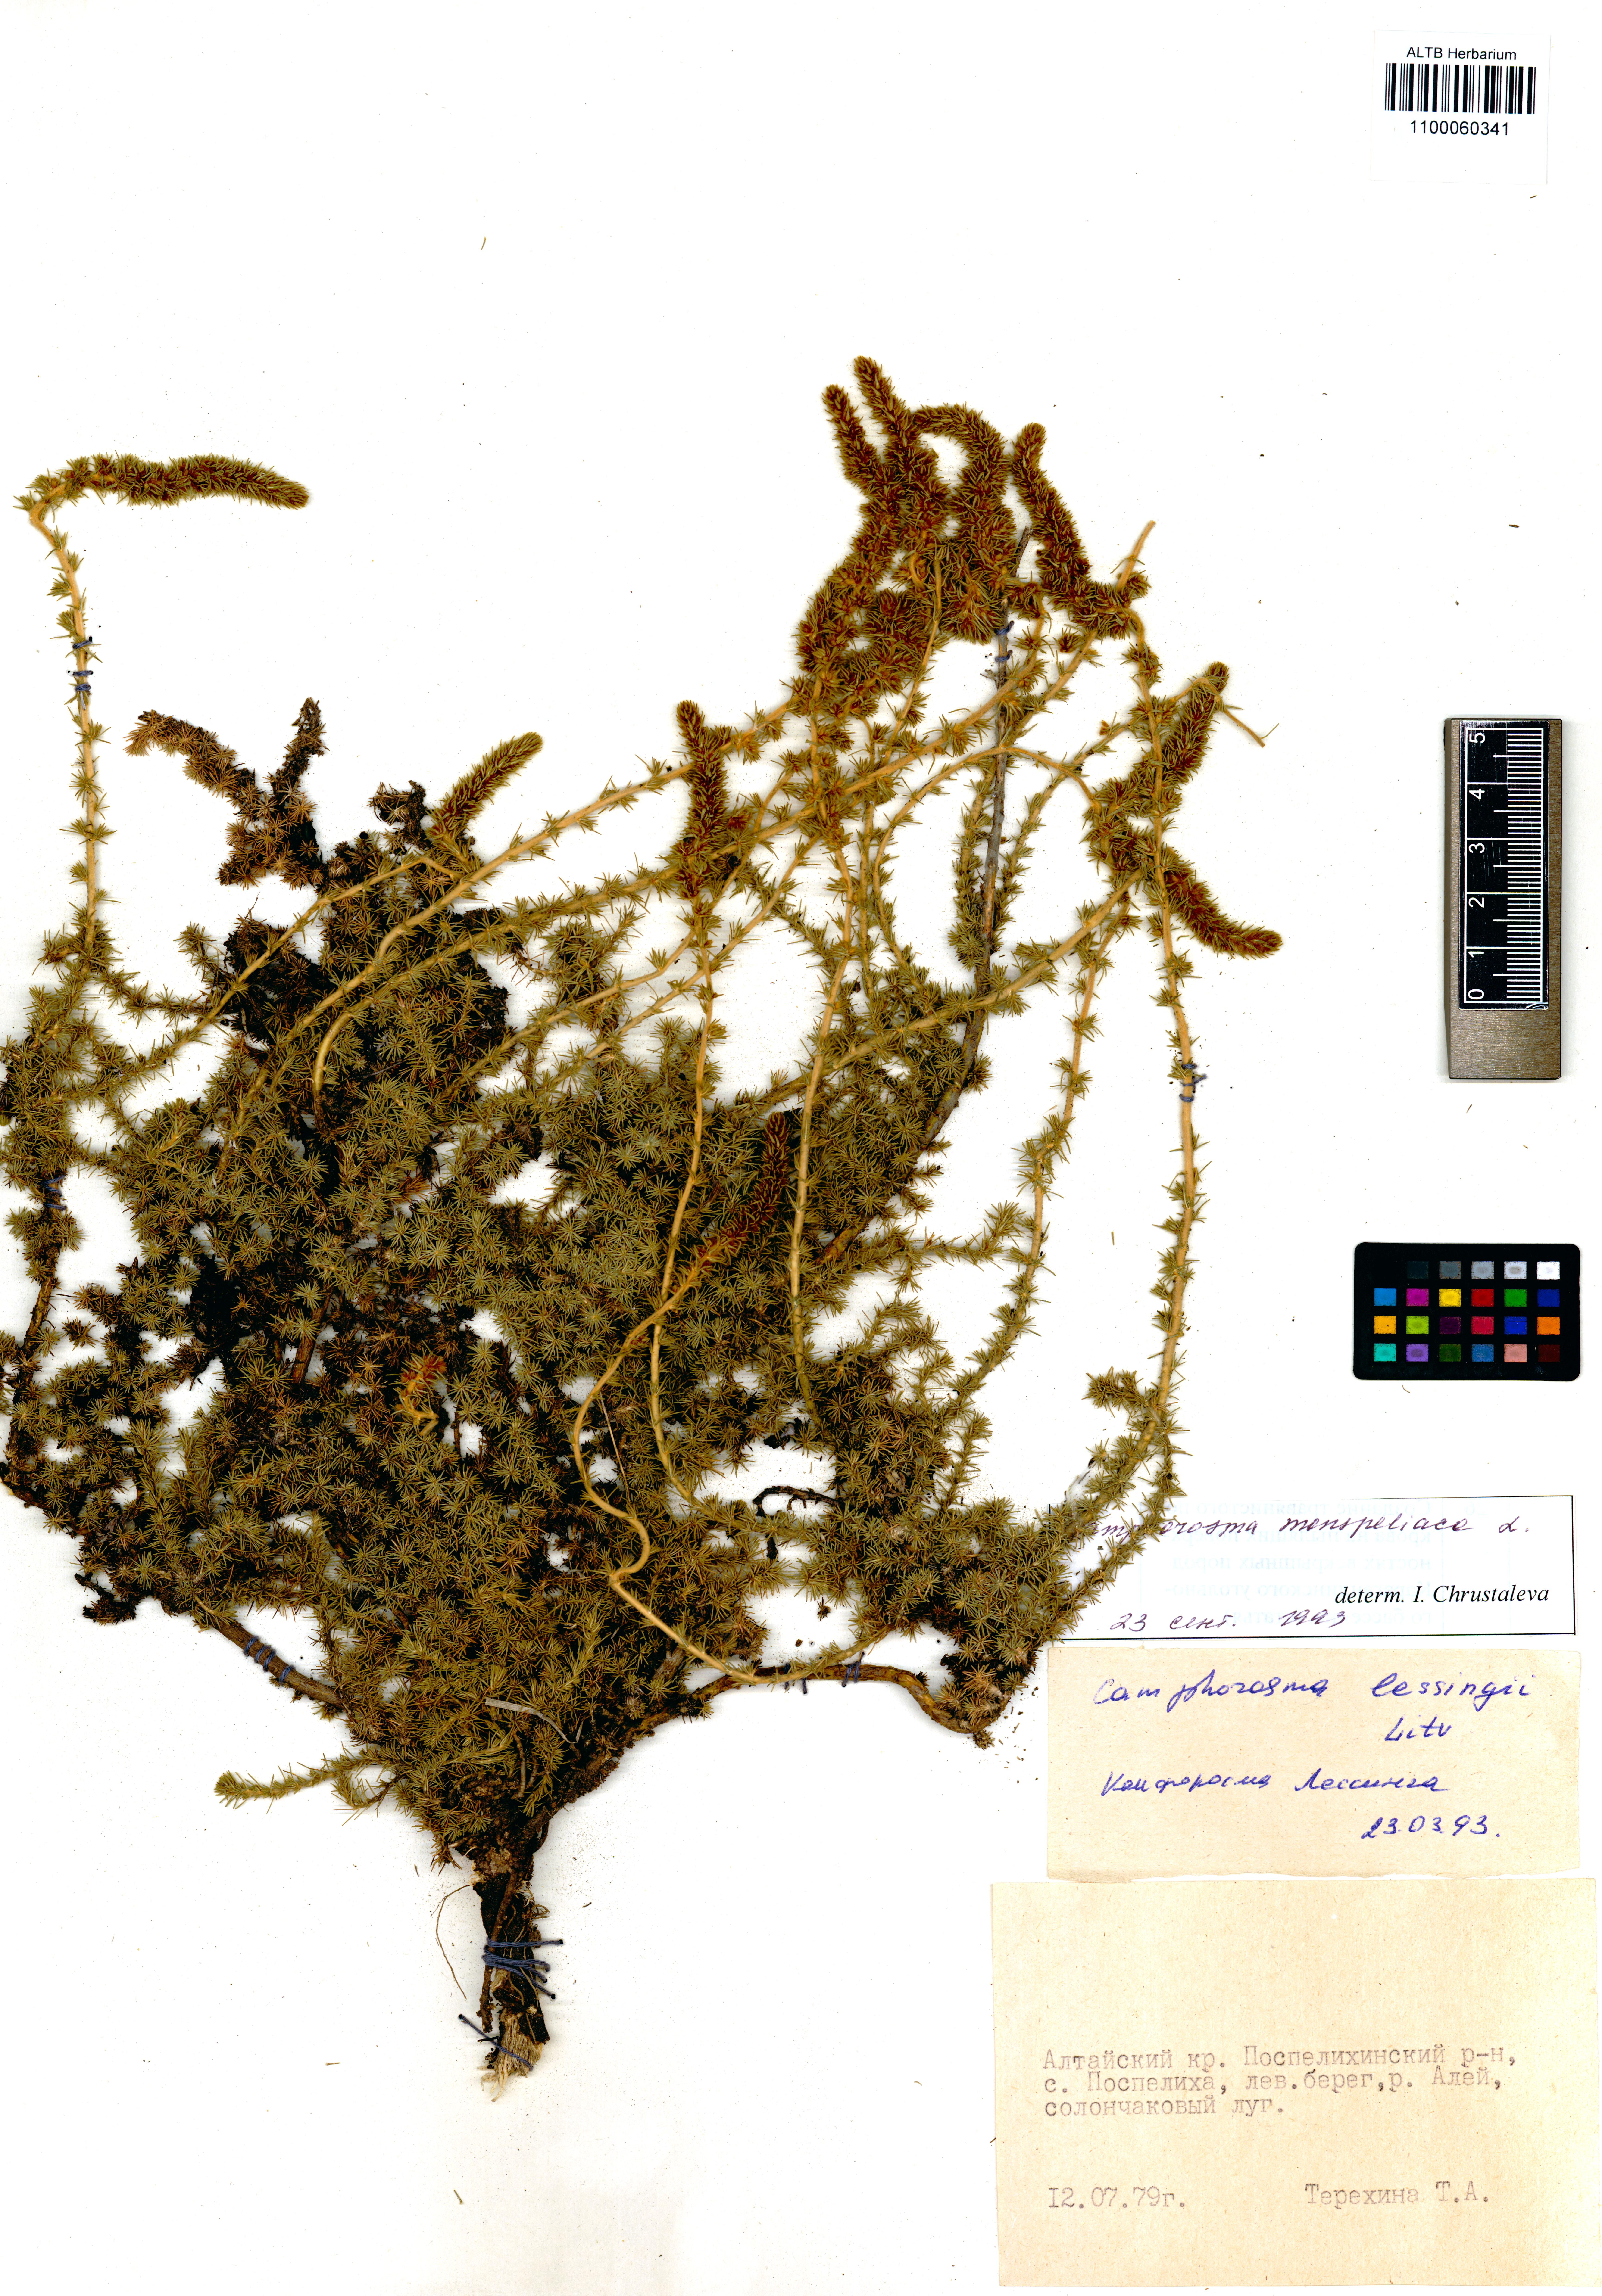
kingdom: Plantae
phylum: Tracheophyta
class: Magnoliopsida
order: Caryophyllales
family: Amaranthaceae
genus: Camphorosma
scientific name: Camphorosma monspeliaca
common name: Camphorfume
